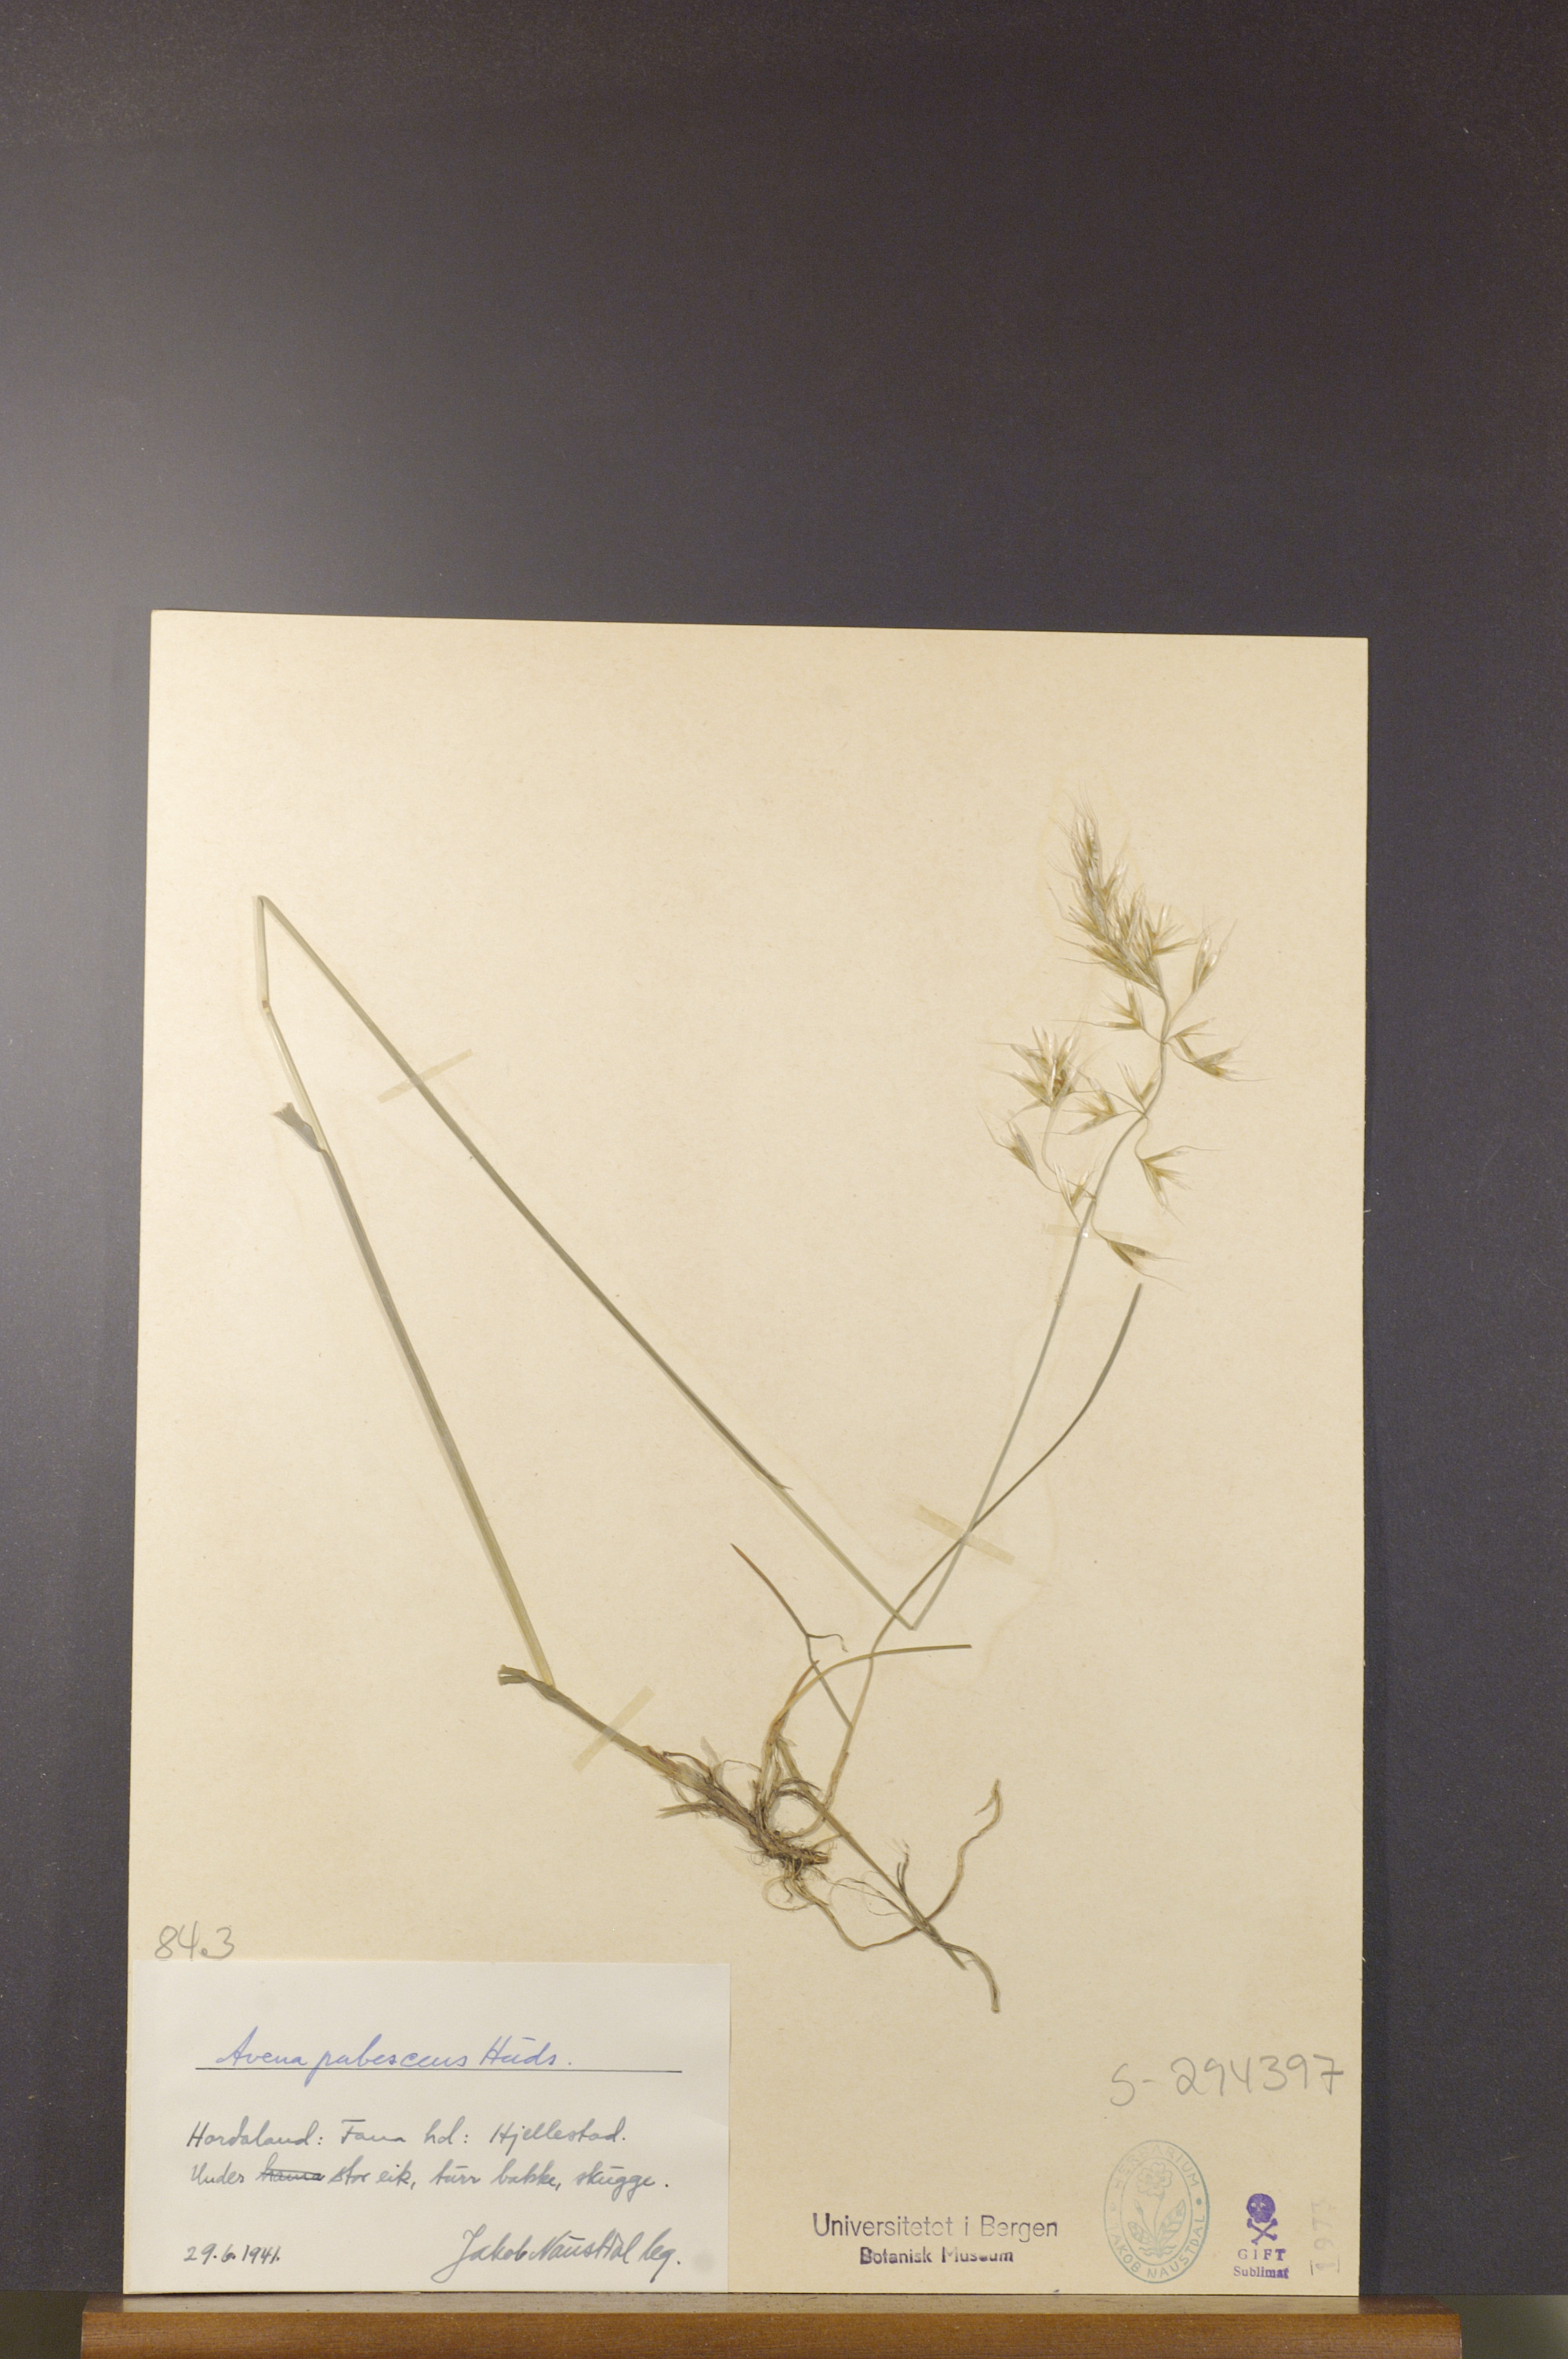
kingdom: Plantae
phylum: Tracheophyta
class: Liliopsida
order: Poales
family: Poaceae
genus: Avenula
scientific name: Avenula pubescens
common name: Downy alpine oatgrass
